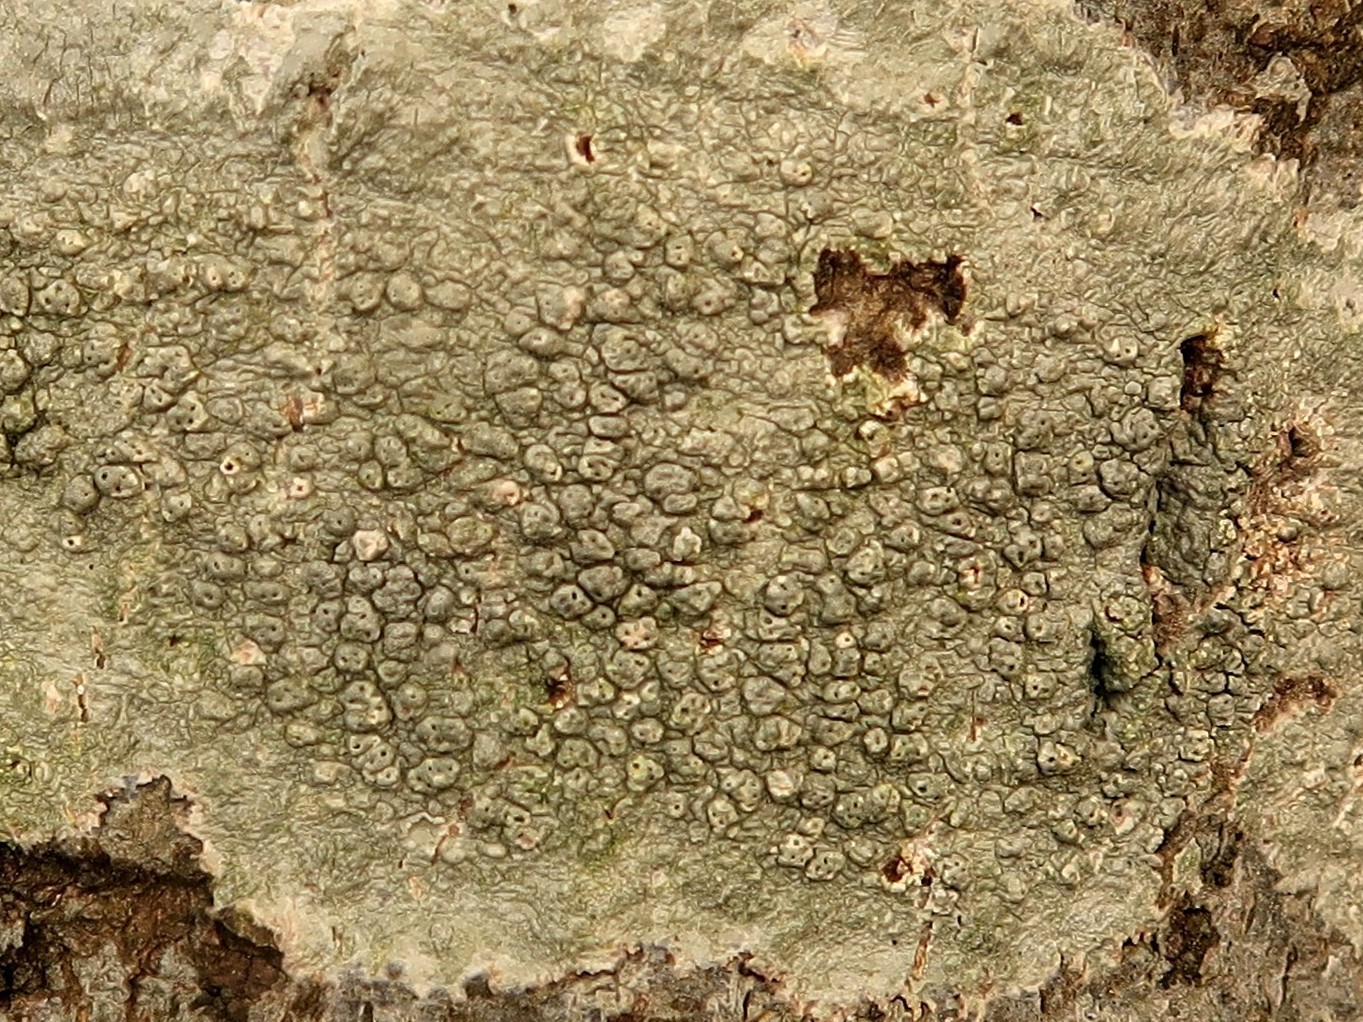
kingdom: Fungi
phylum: Ascomycota
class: Lecanoromycetes
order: Pertusariales
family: Pertusariaceae
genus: Pertusaria
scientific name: Pertusaria pertusa
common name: almindelig prikvortelav
